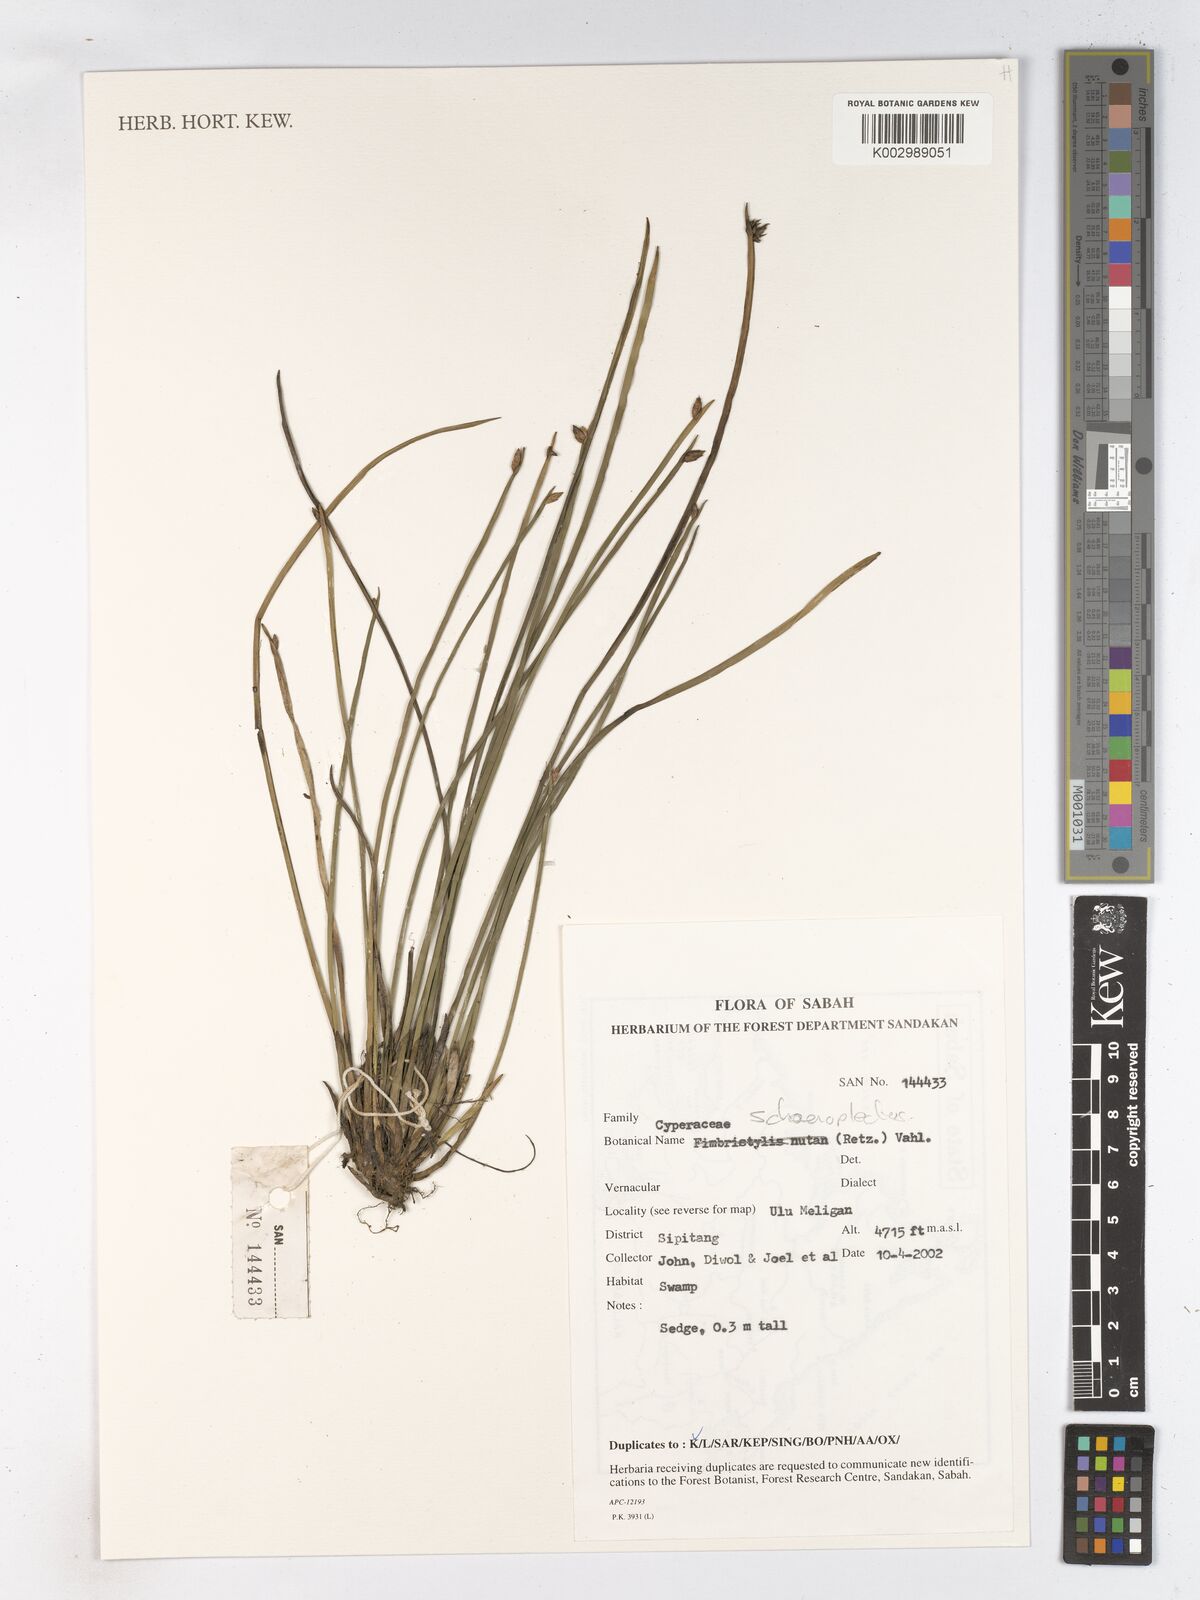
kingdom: Plantae
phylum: Tracheophyta
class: Liliopsida
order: Poales
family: Cyperaceae
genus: Schoenoplectus
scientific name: Schoenoplectus
